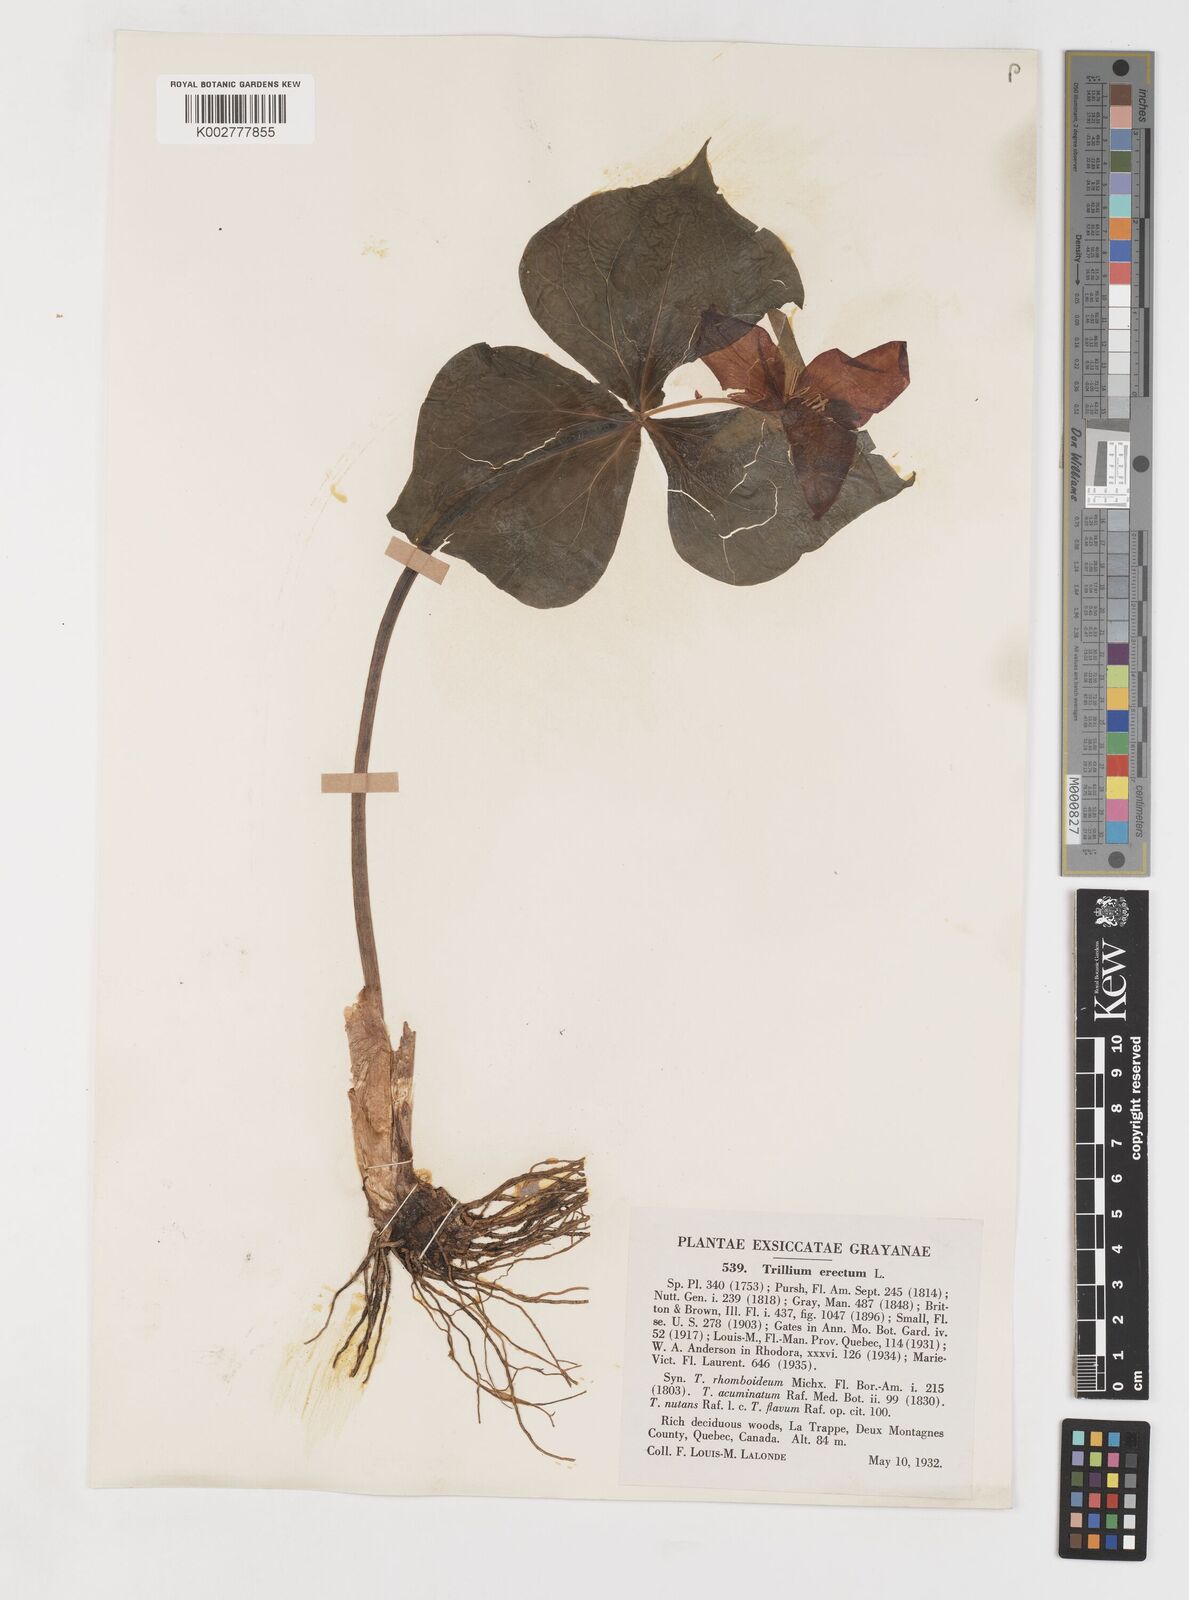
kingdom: Plantae
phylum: Tracheophyta
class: Liliopsida
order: Liliales
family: Melanthiaceae
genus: Trillium
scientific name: Trillium erectum
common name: Purple trillium
